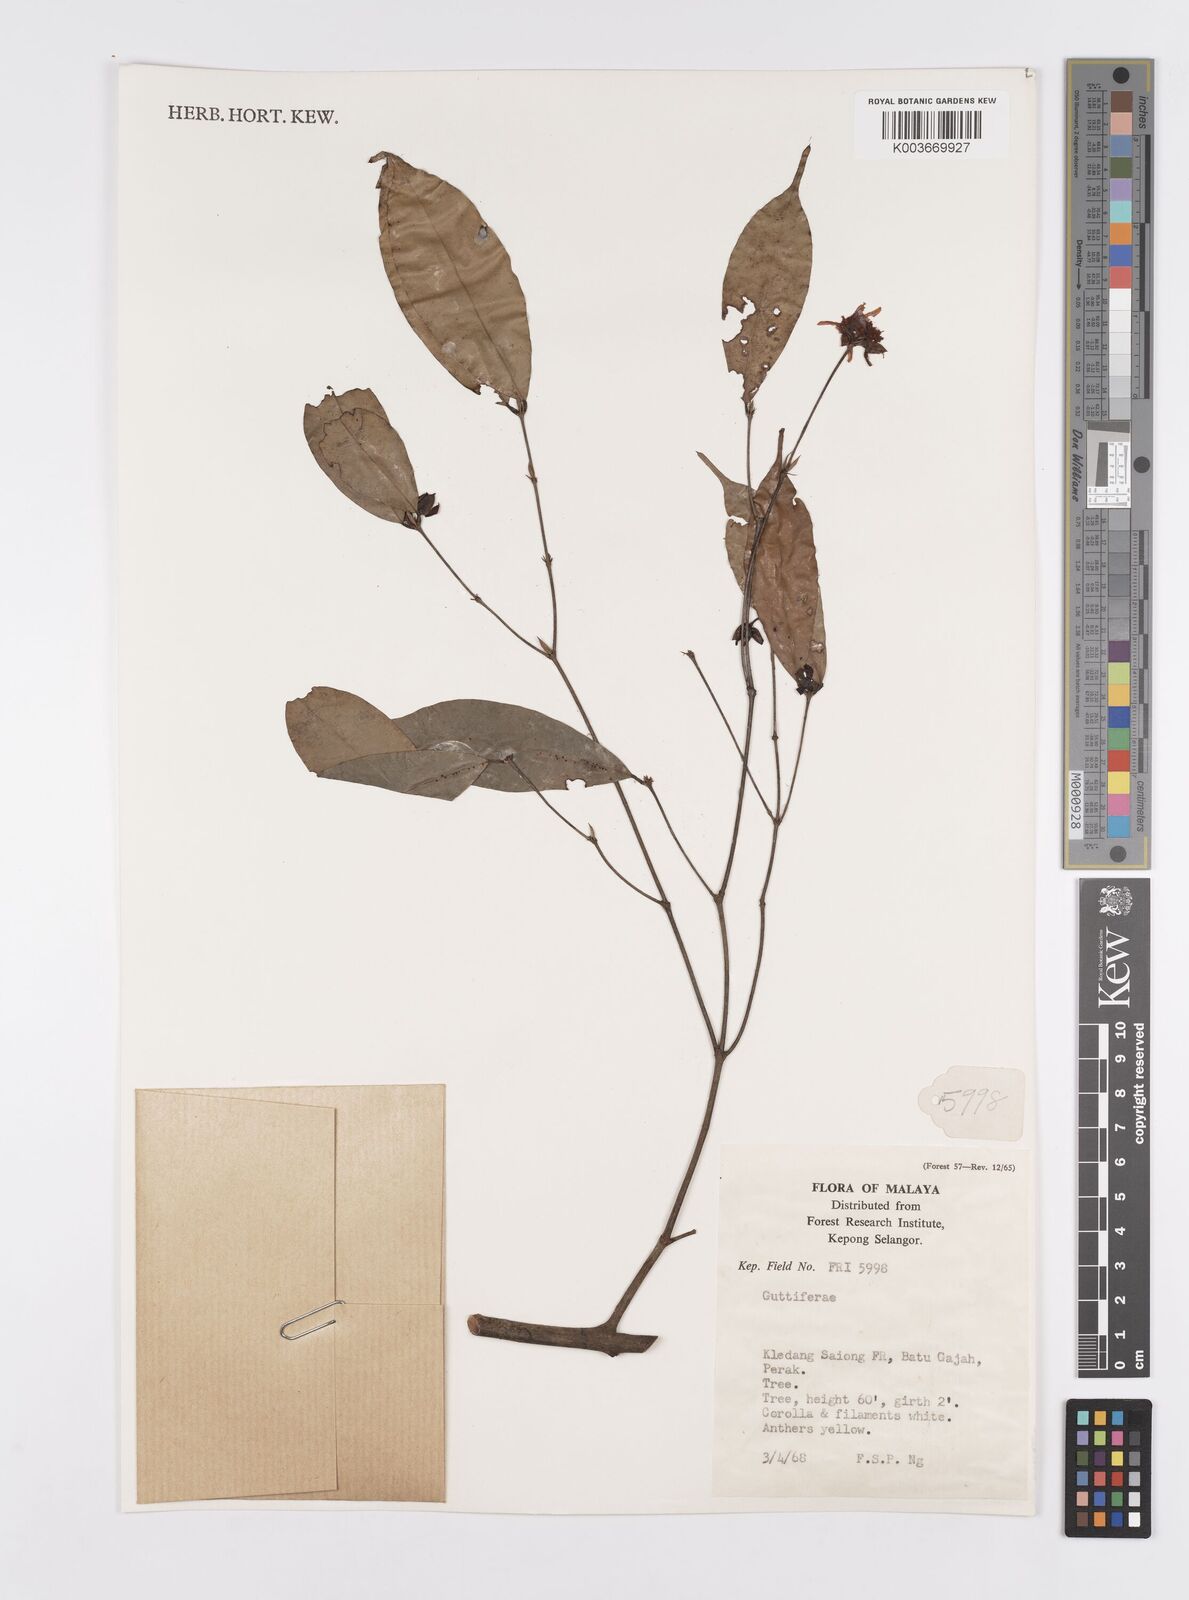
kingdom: Plantae
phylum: Tracheophyta
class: Magnoliopsida
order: Malpighiales
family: Clusiaceae
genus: Garcinia
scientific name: Garcinia
